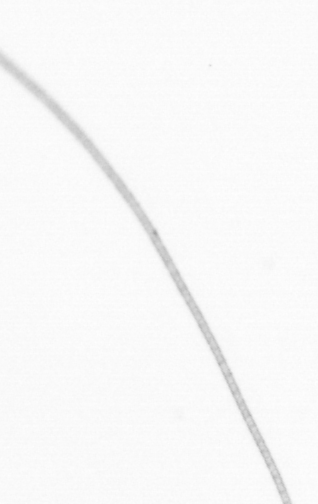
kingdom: Chromista
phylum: Ochrophyta
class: Bacillariophyceae
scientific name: Bacillariophyceae
